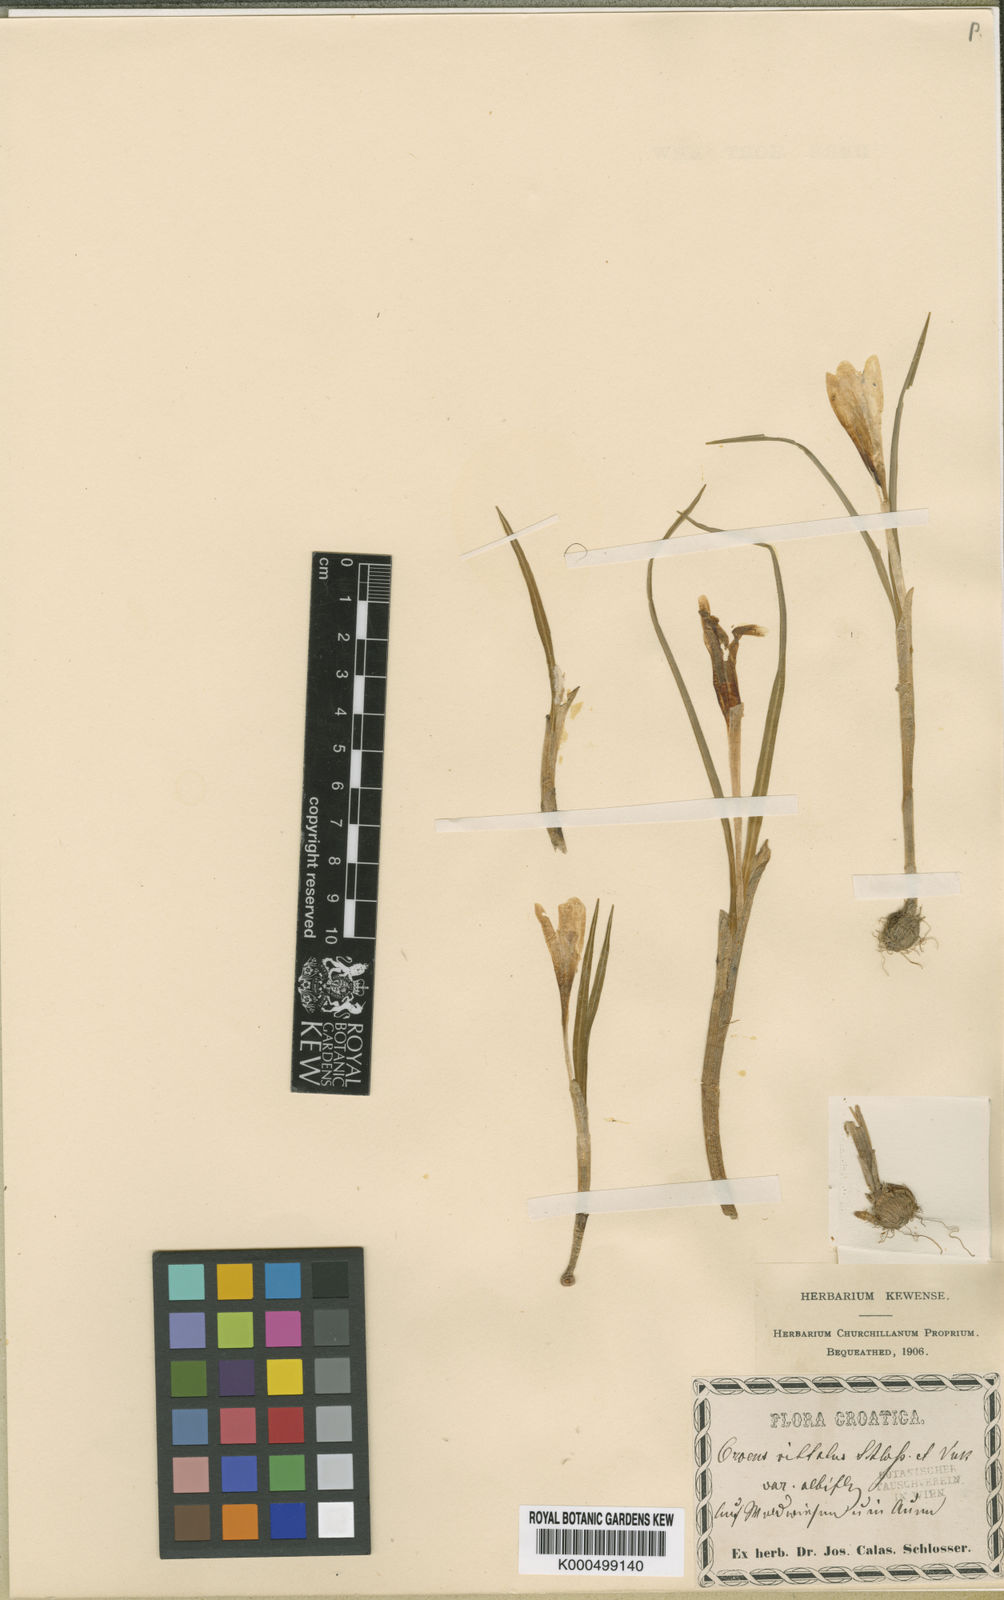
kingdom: Plantae
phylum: Tracheophyta
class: Liliopsida
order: Asparagales
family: Iridaceae
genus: Crocus
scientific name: Crocus
